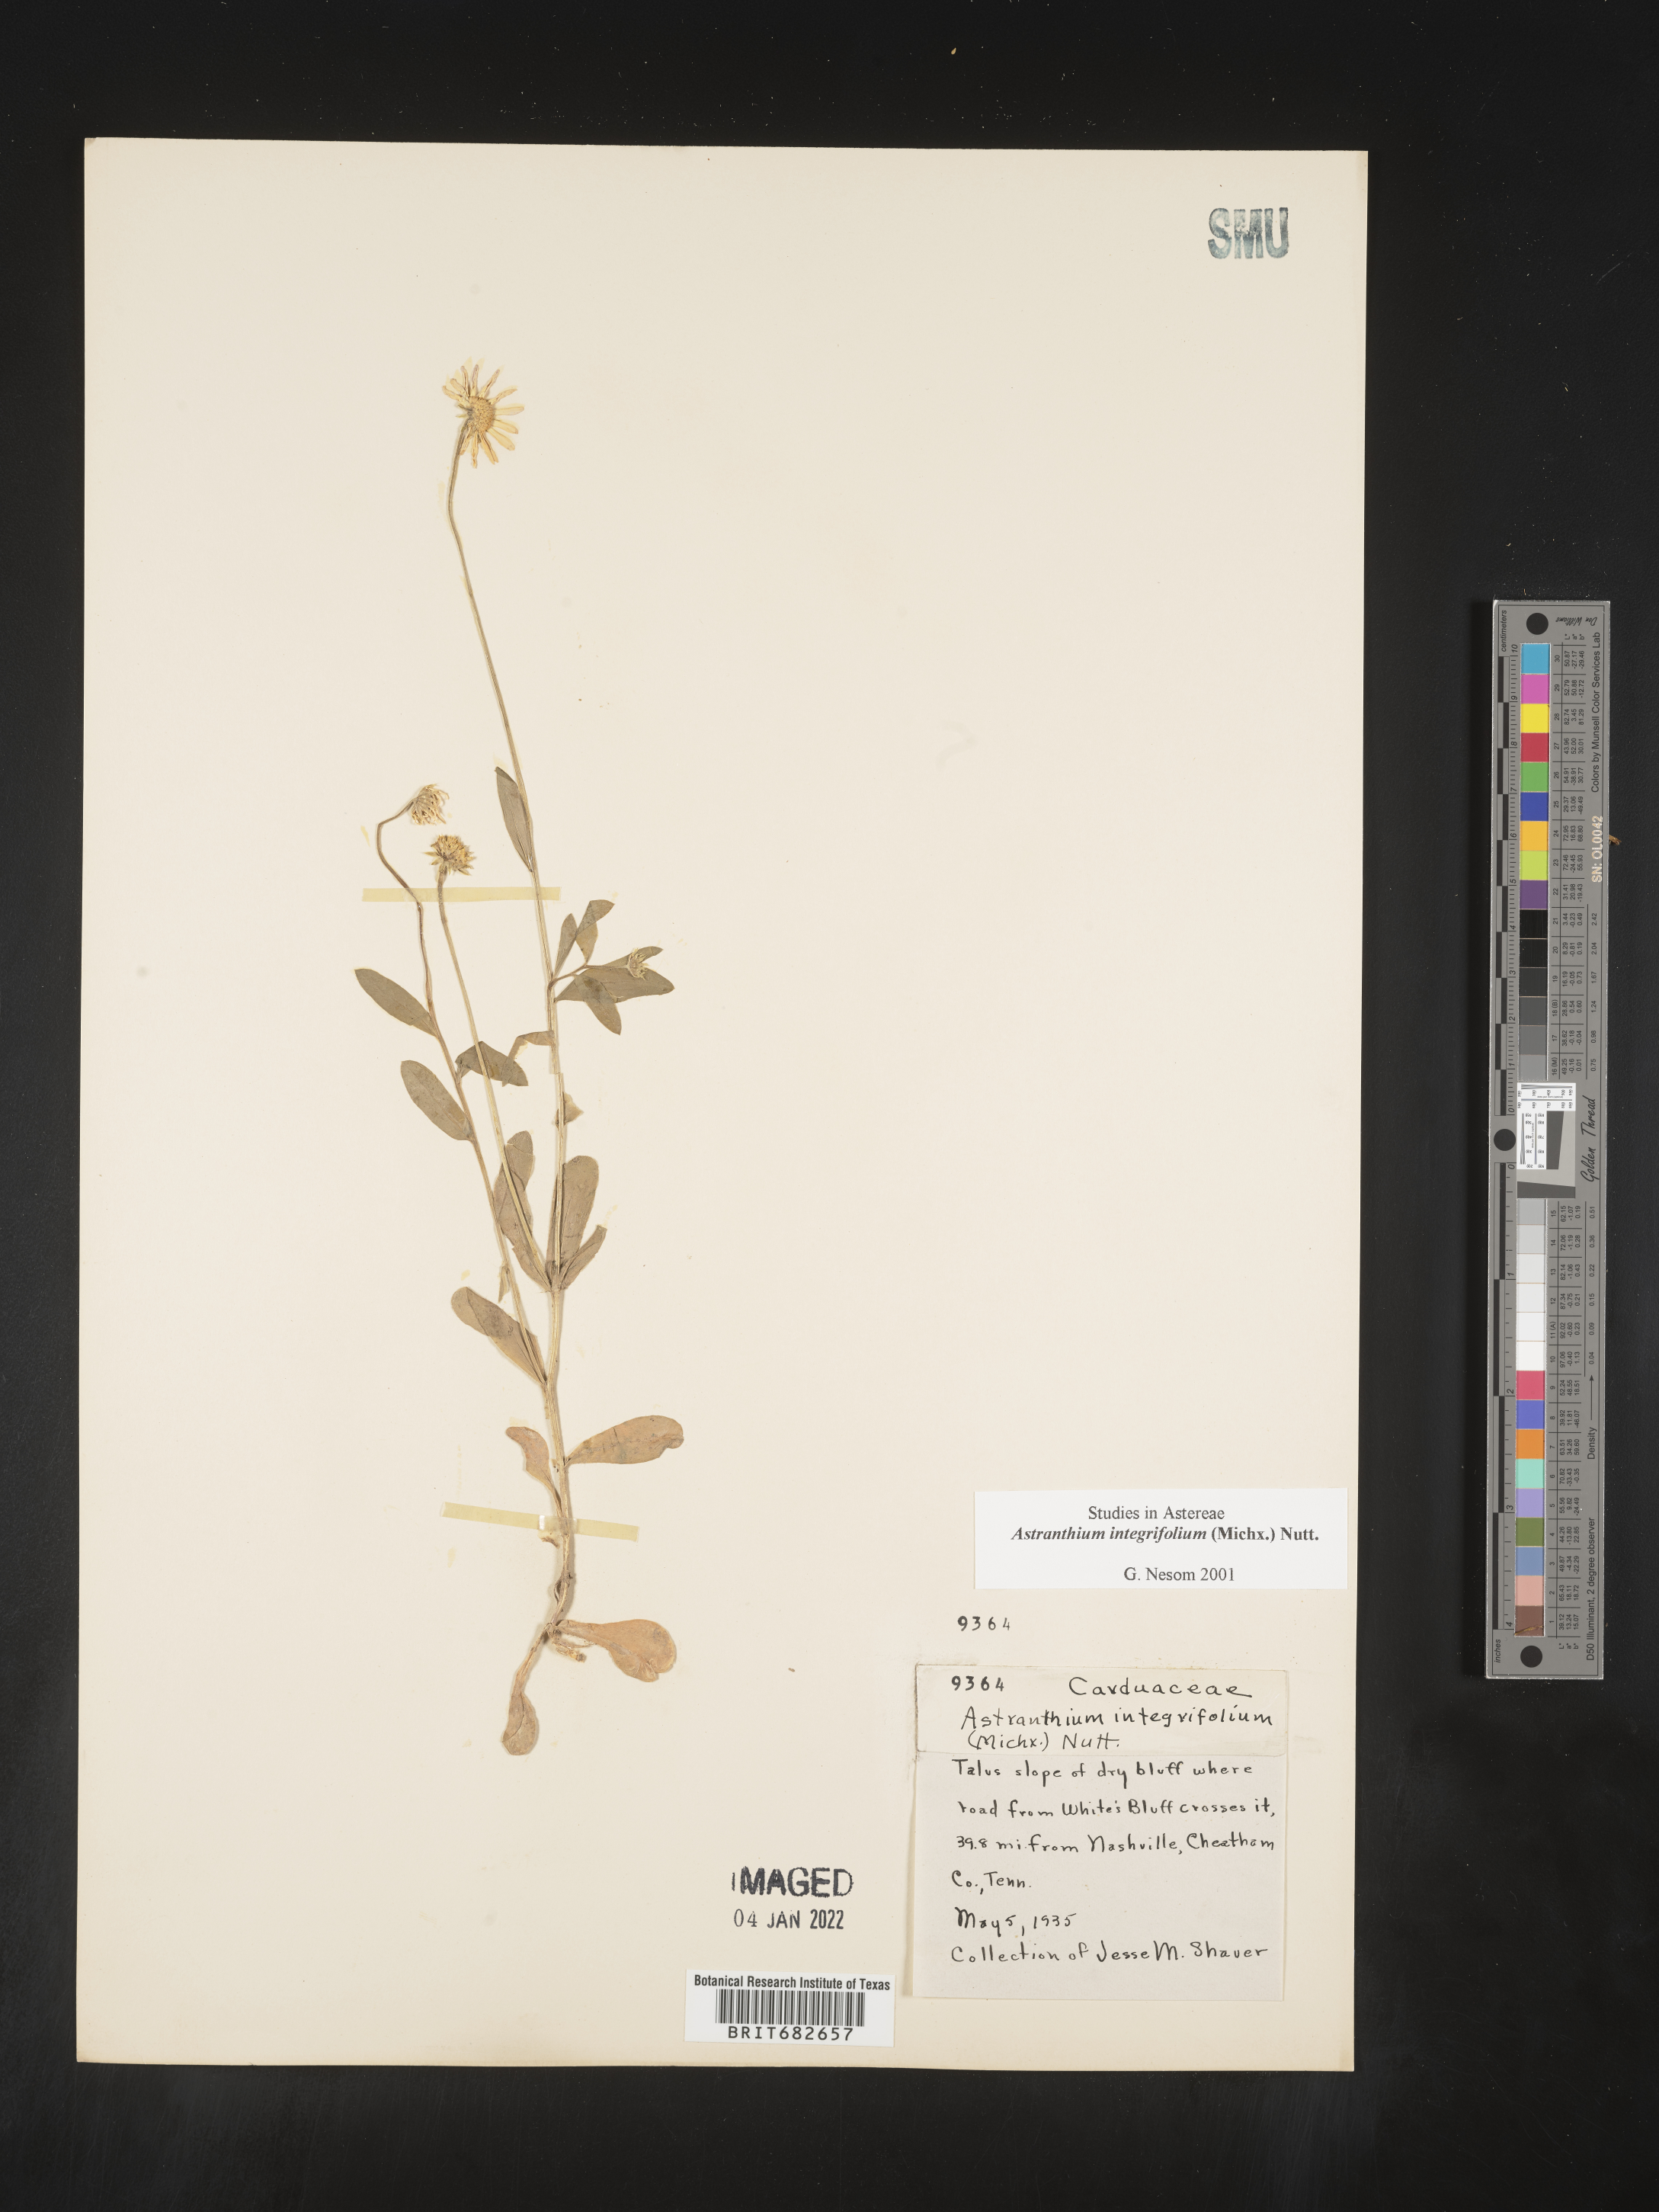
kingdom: Plantae
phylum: Tracheophyta
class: Magnoliopsida
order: Asterales
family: Asteraceae
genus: Astranthium
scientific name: Astranthium
